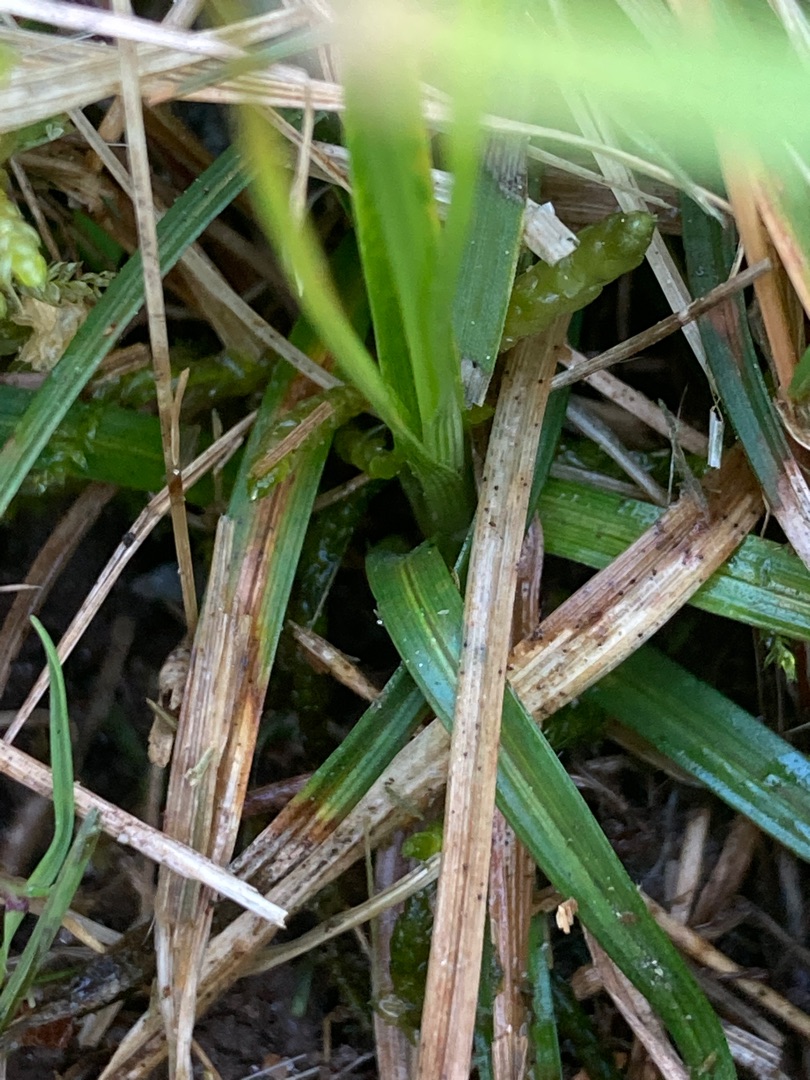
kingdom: Plantae
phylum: Tracheophyta
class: Liliopsida
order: Poales
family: Cyperaceae
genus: Carex
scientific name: Carex caryophyllea
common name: Vår-star
